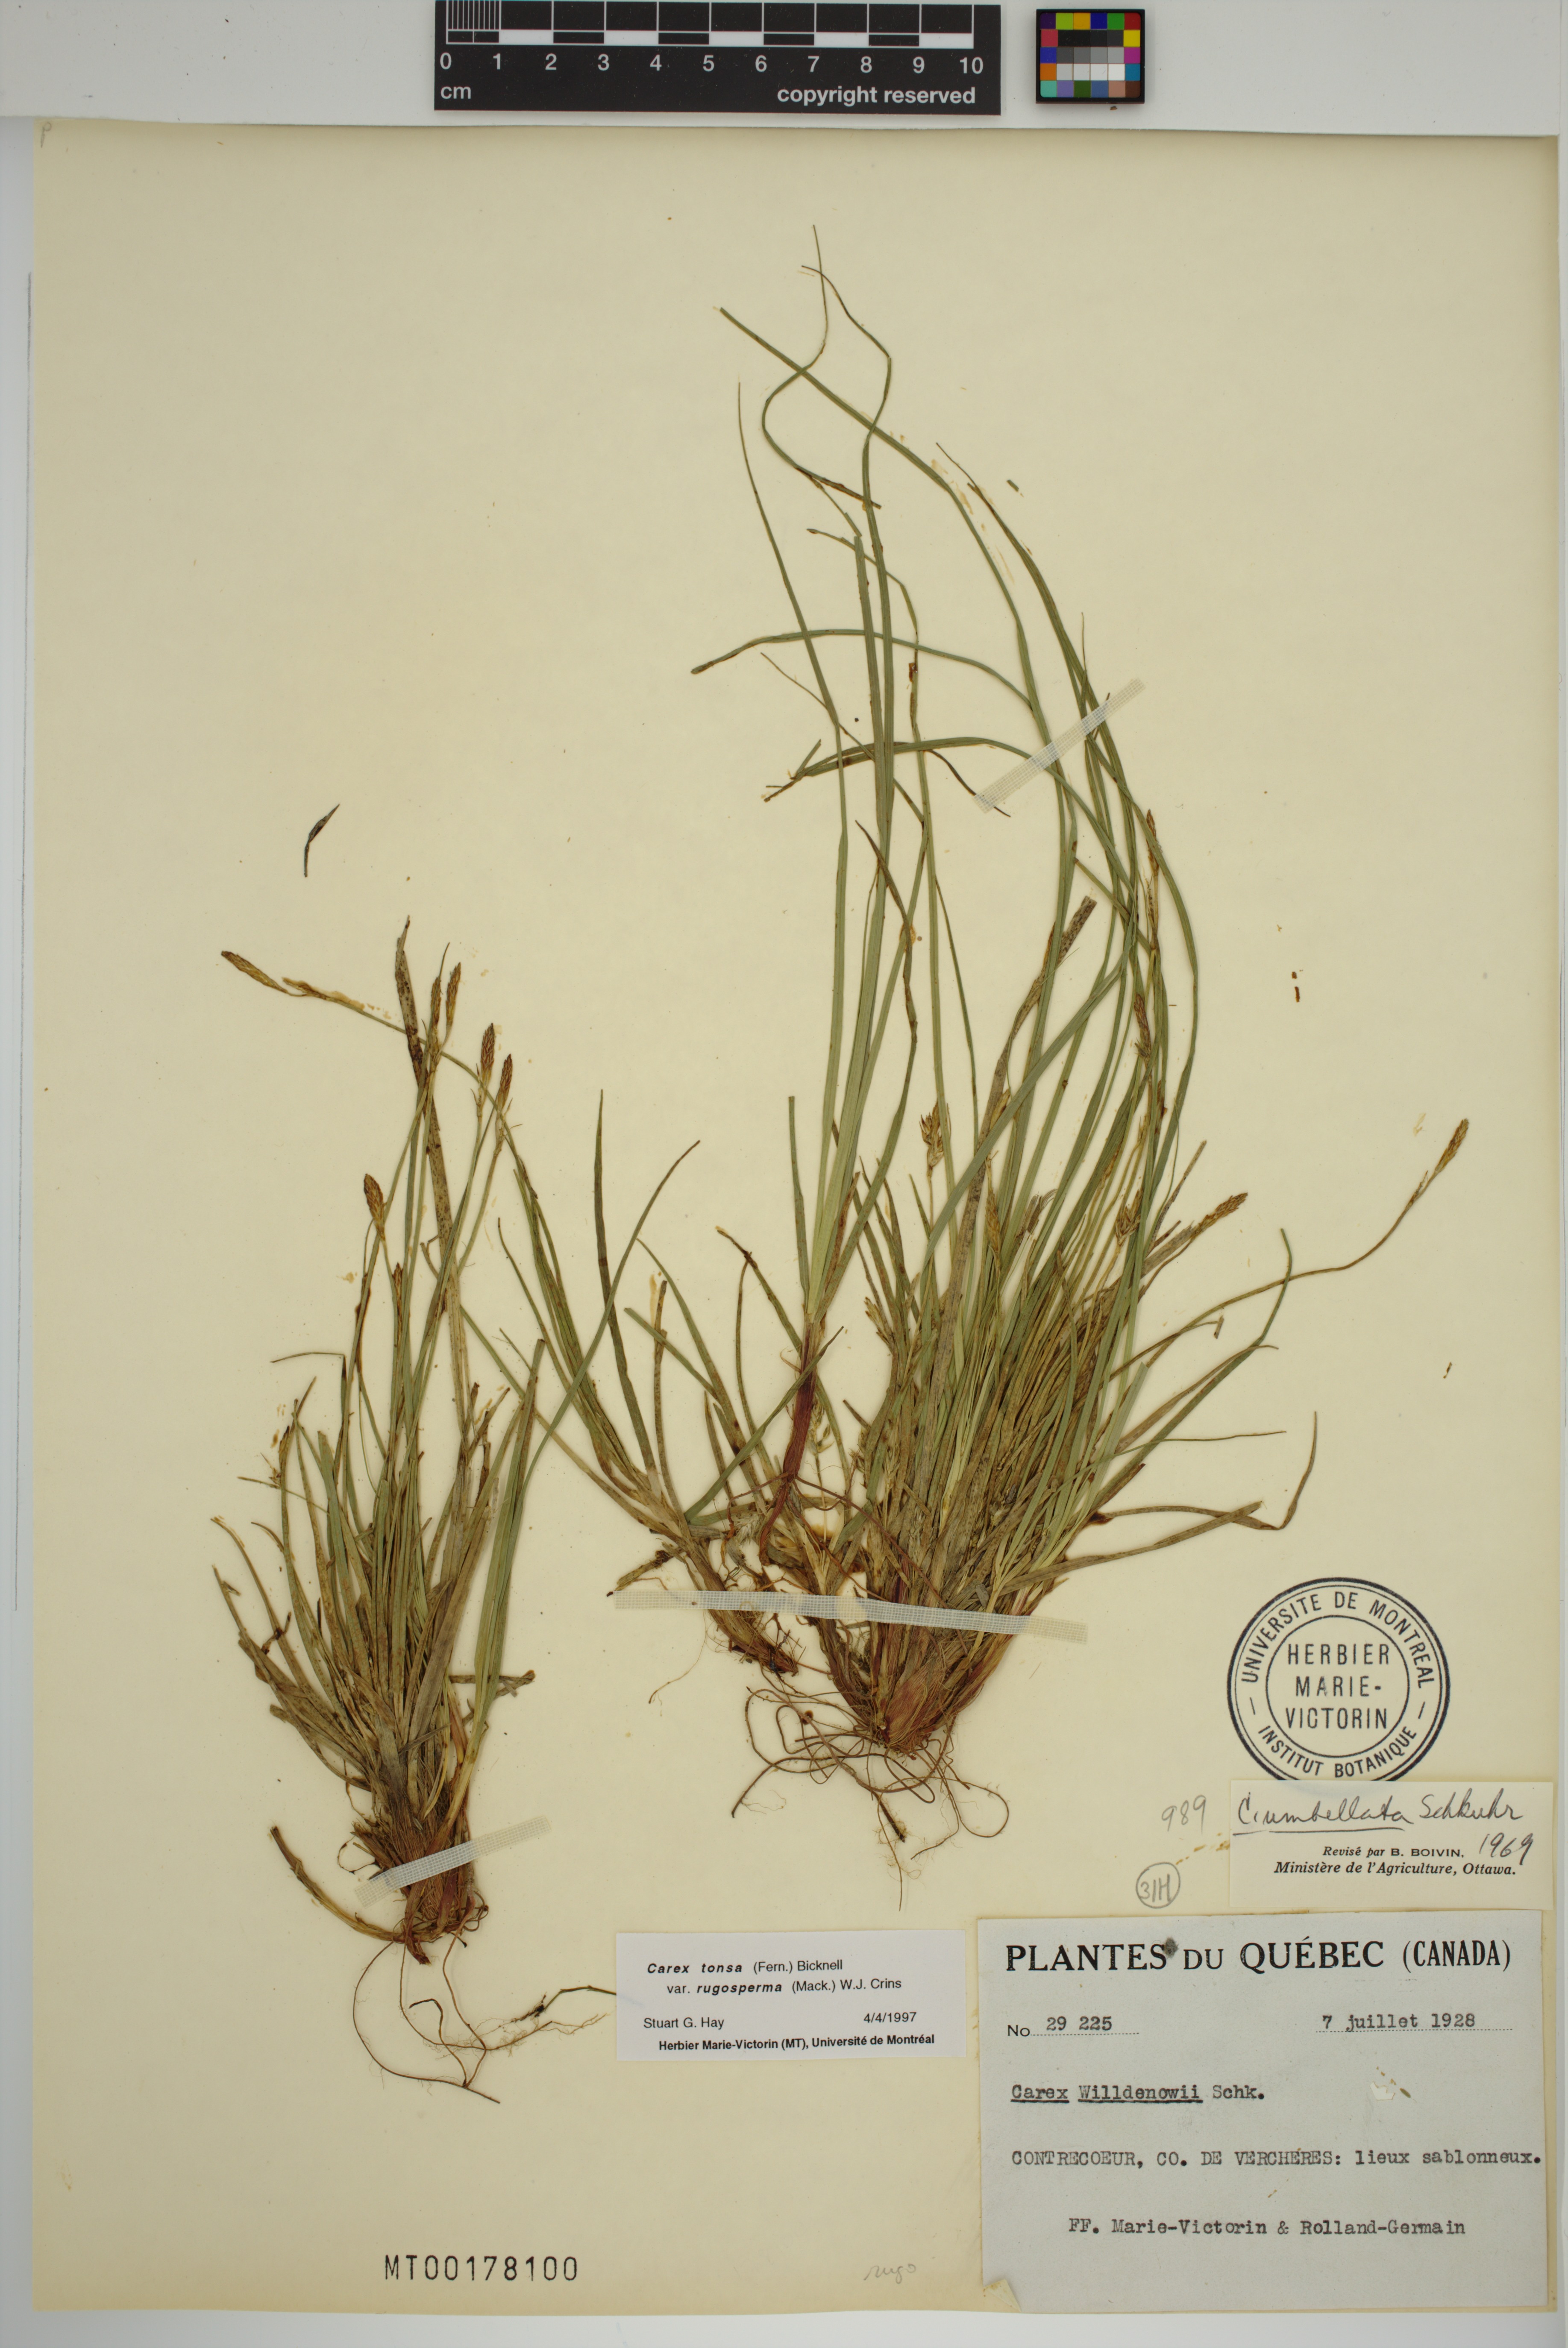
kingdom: Plantae
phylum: Tracheophyta
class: Liliopsida
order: Poales
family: Cyperaceae
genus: Carex
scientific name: Carex tonsa
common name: Bald sedge
